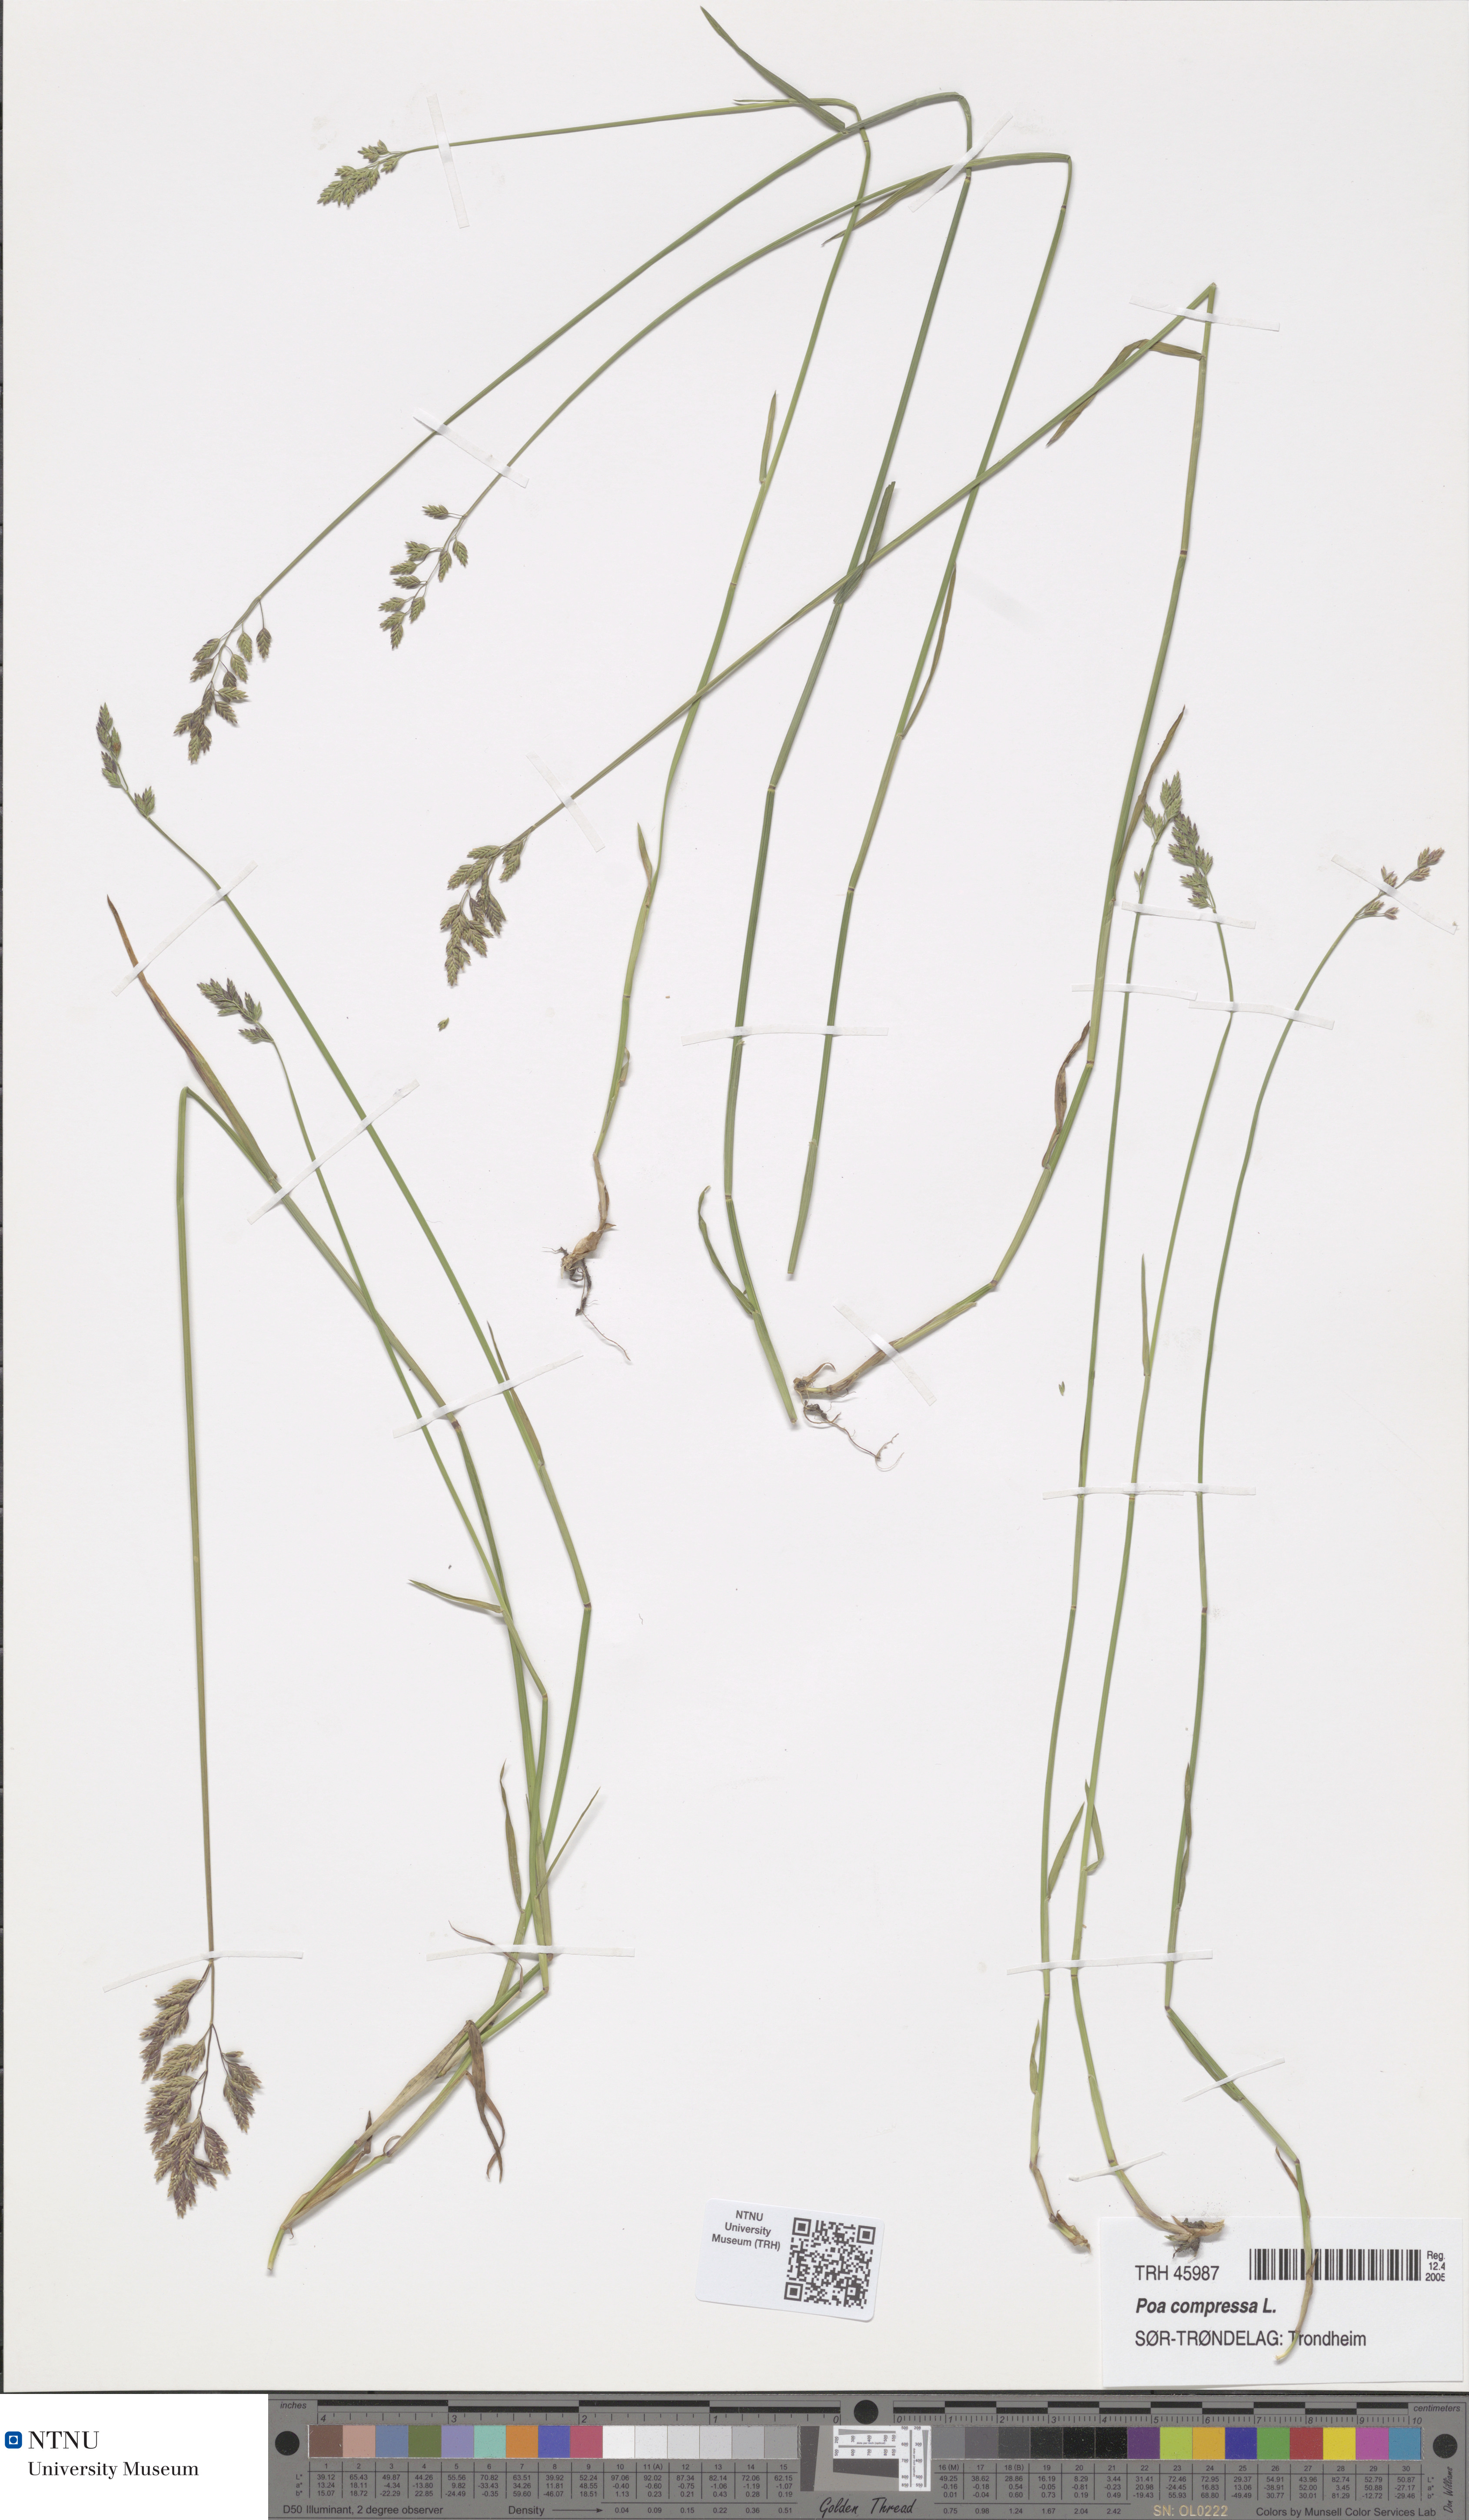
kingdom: Plantae
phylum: Tracheophyta
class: Liliopsida
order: Poales
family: Poaceae
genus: Poa
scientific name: Poa compressa
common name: Canada bluegrass
